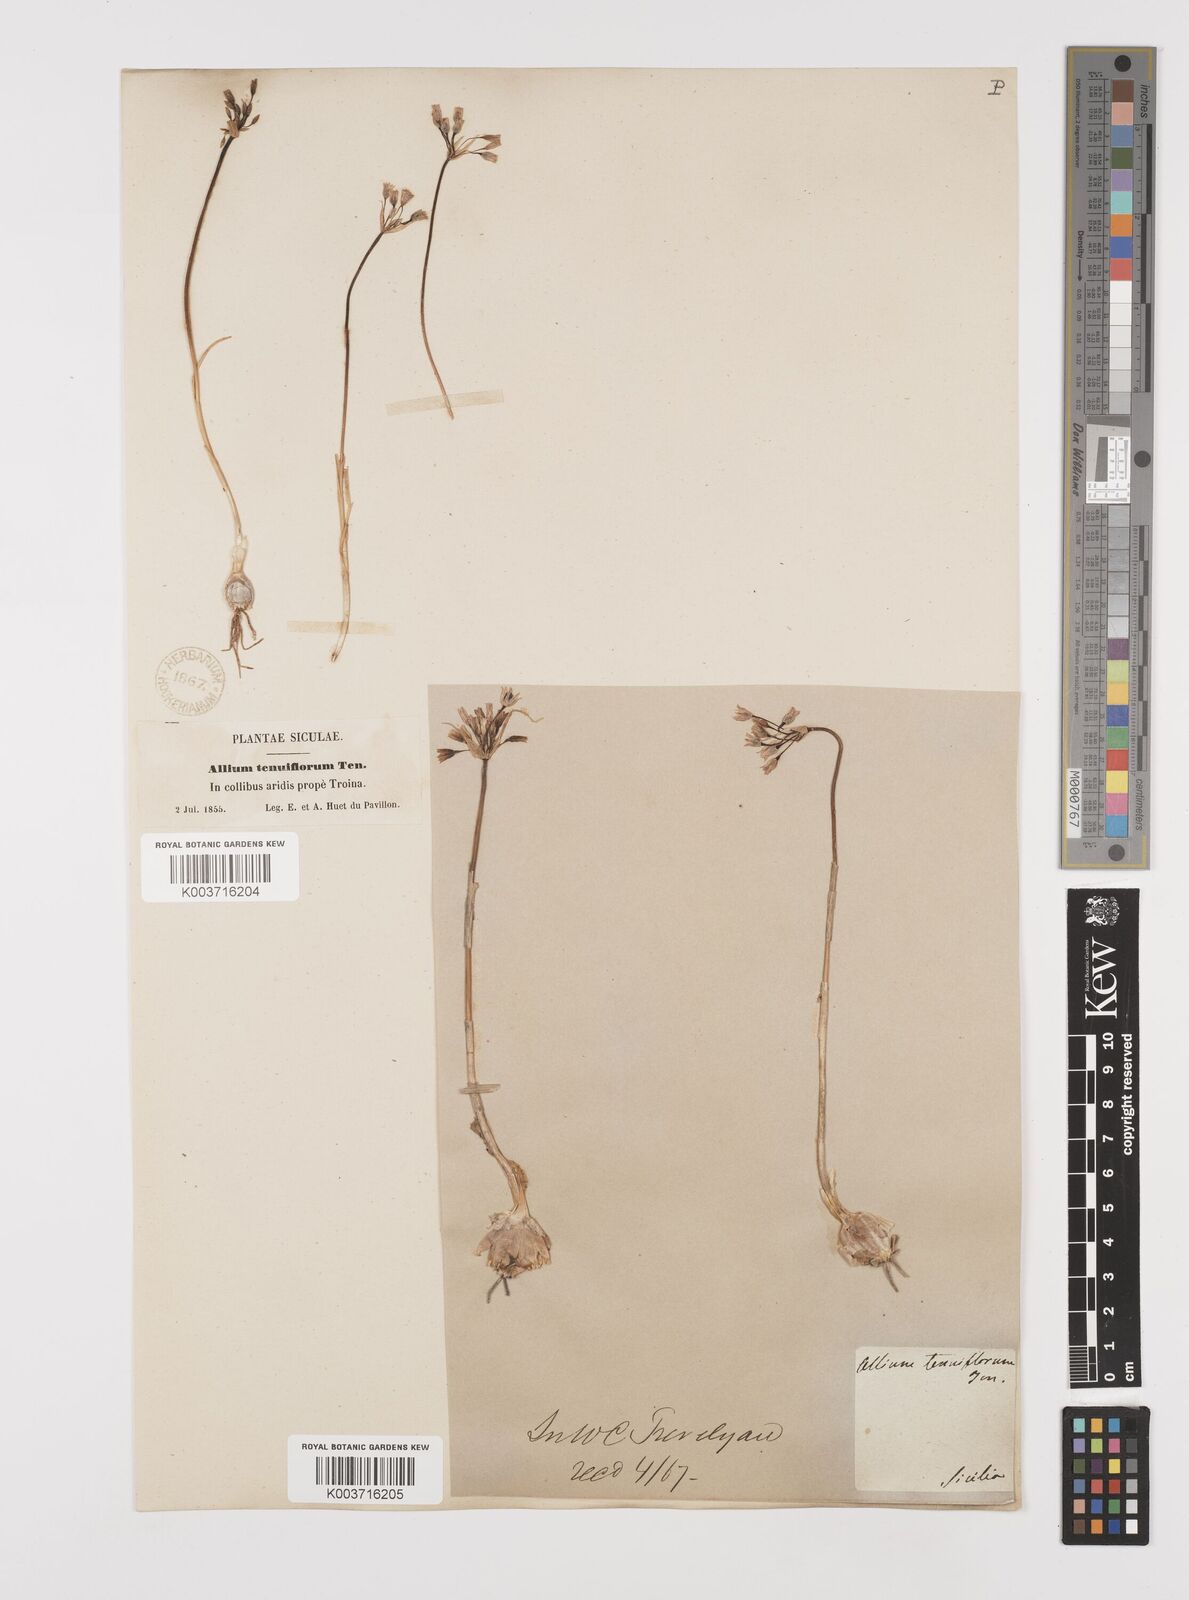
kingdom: Plantae
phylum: Tracheophyta
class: Liliopsida
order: Asparagales
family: Amaryllidaceae
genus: Allium
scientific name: Allium tenuiflorum
